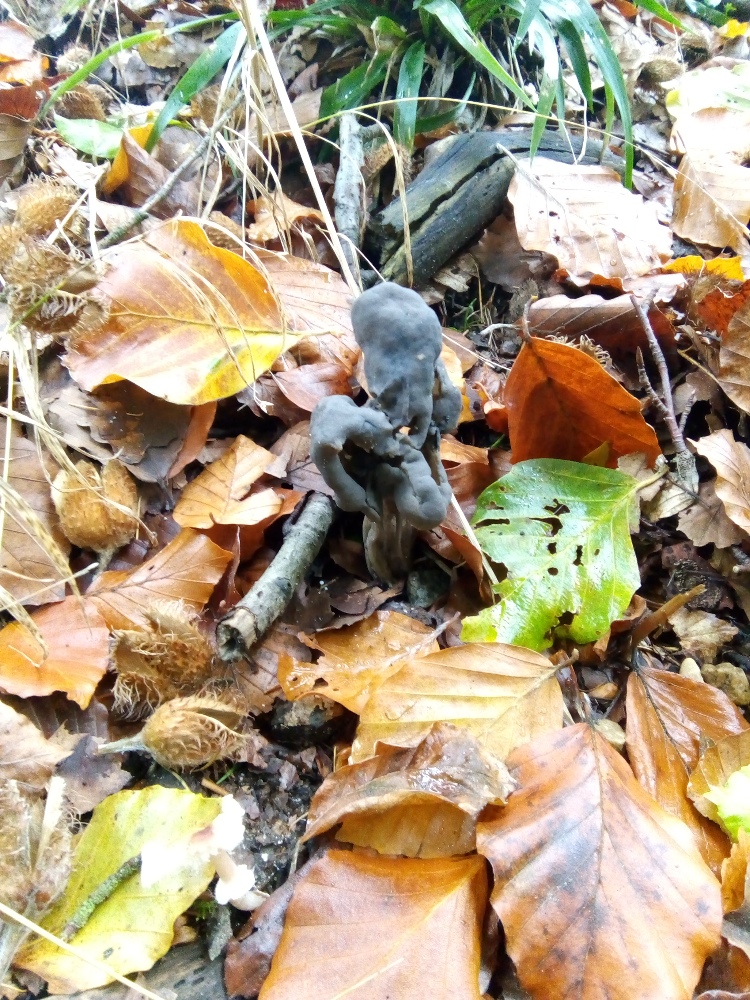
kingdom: Fungi
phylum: Ascomycota
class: Pezizomycetes
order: Pezizales
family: Helvellaceae
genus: Helvella
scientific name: Helvella lacunosa
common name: grubet foldhat
